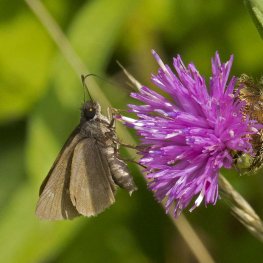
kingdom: Animalia
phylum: Arthropoda
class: Insecta
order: Lepidoptera
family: Hesperiidae
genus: Euphyes
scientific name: Euphyes vestris
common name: Dun Skipper
